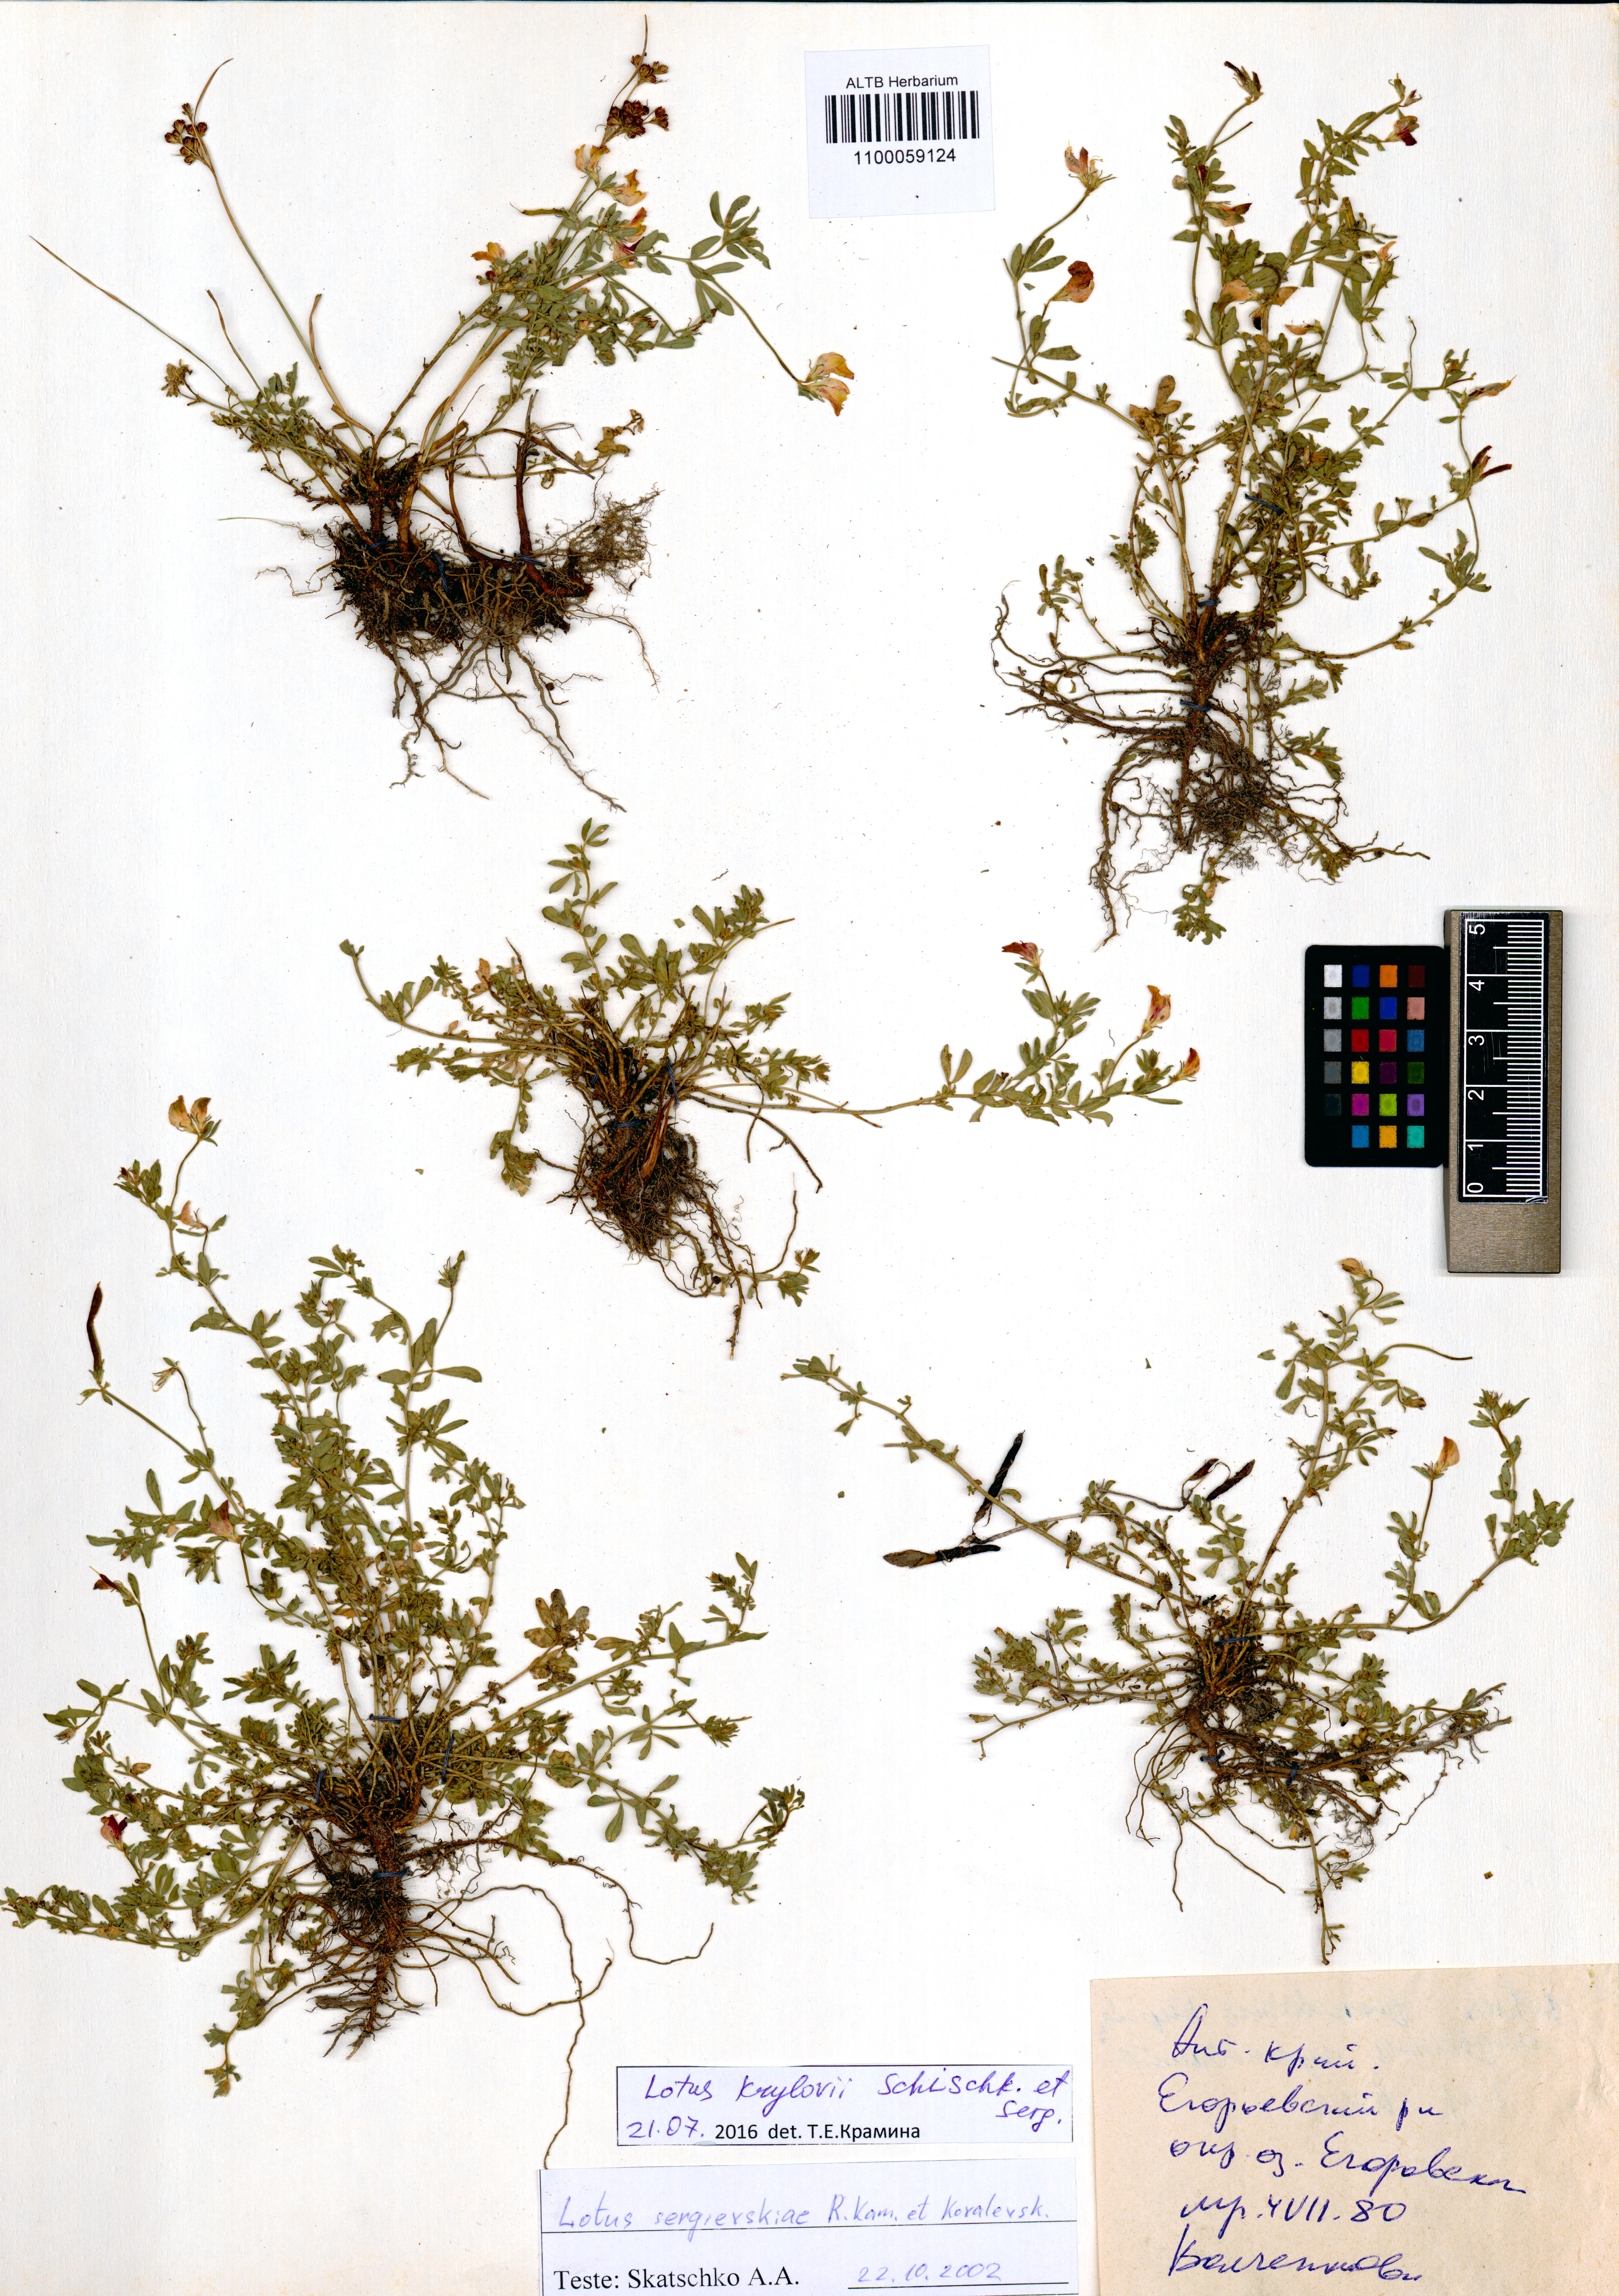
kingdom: Plantae
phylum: Tracheophyta
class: Magnoliopsida
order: Fabales
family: Fabaceae
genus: Lotus
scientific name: Lotus krylovii
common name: Krylov's bird's-foot trefoil
